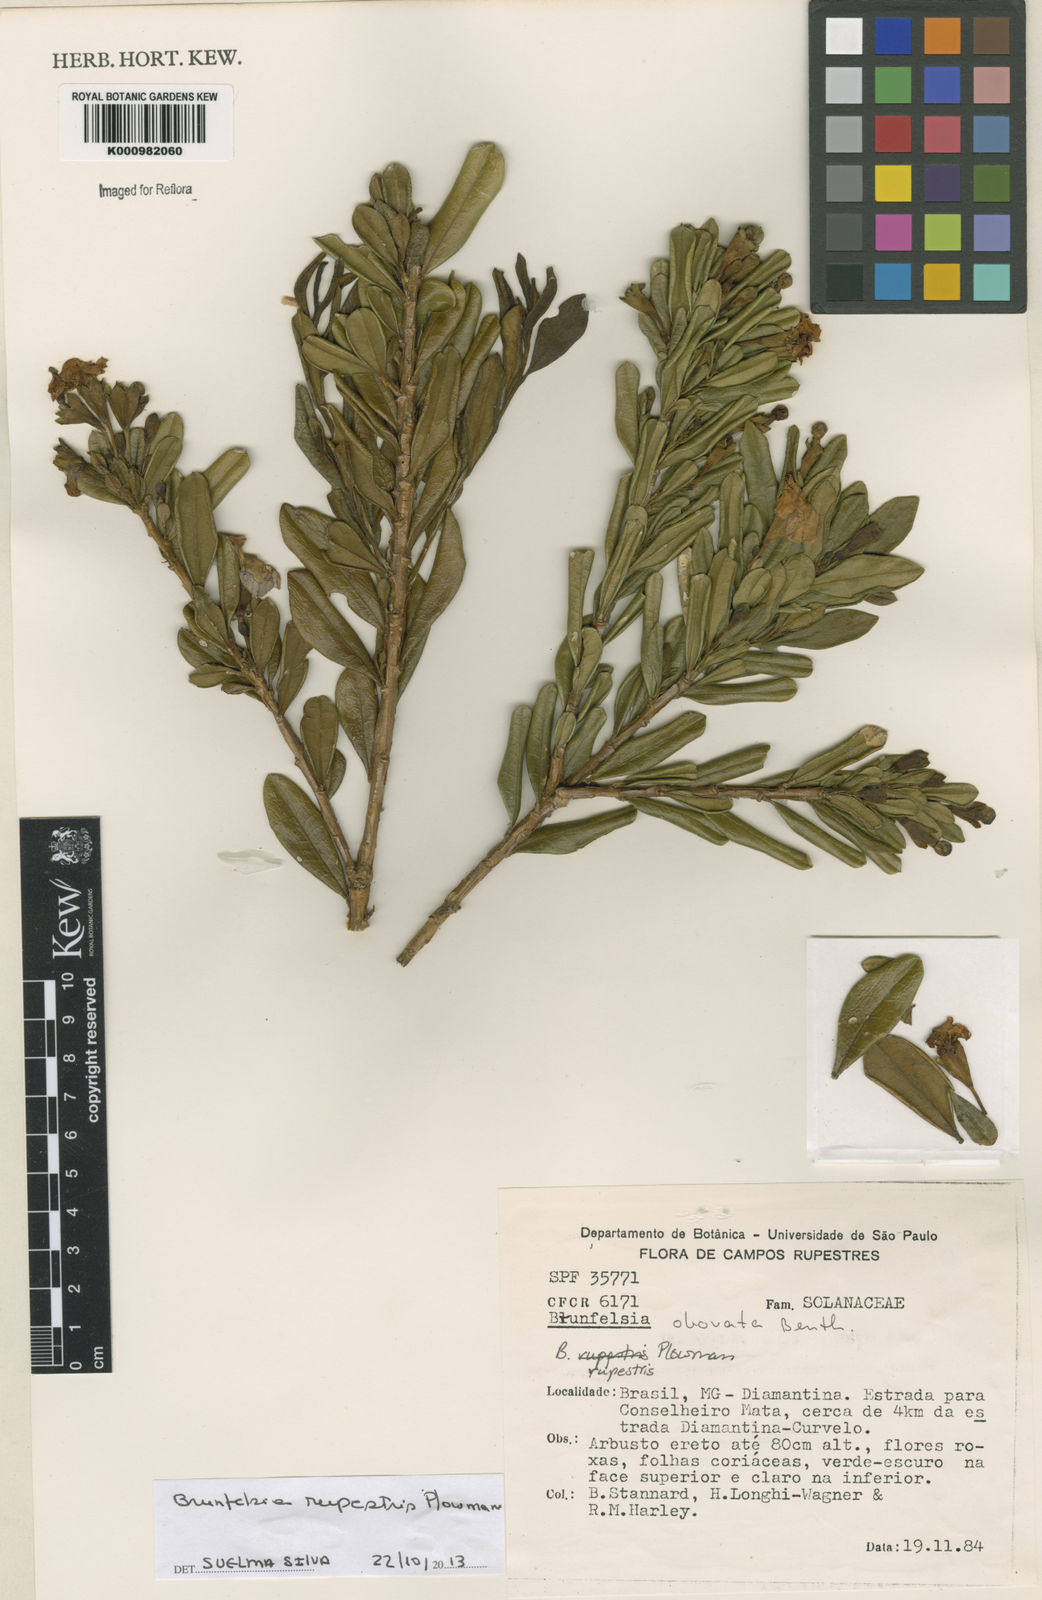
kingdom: Plantae
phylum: Tracheophyta
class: Magnoliopsida
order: Solanales
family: Solanaceae
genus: Brunfelsia
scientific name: Brunfelsia rupestris
